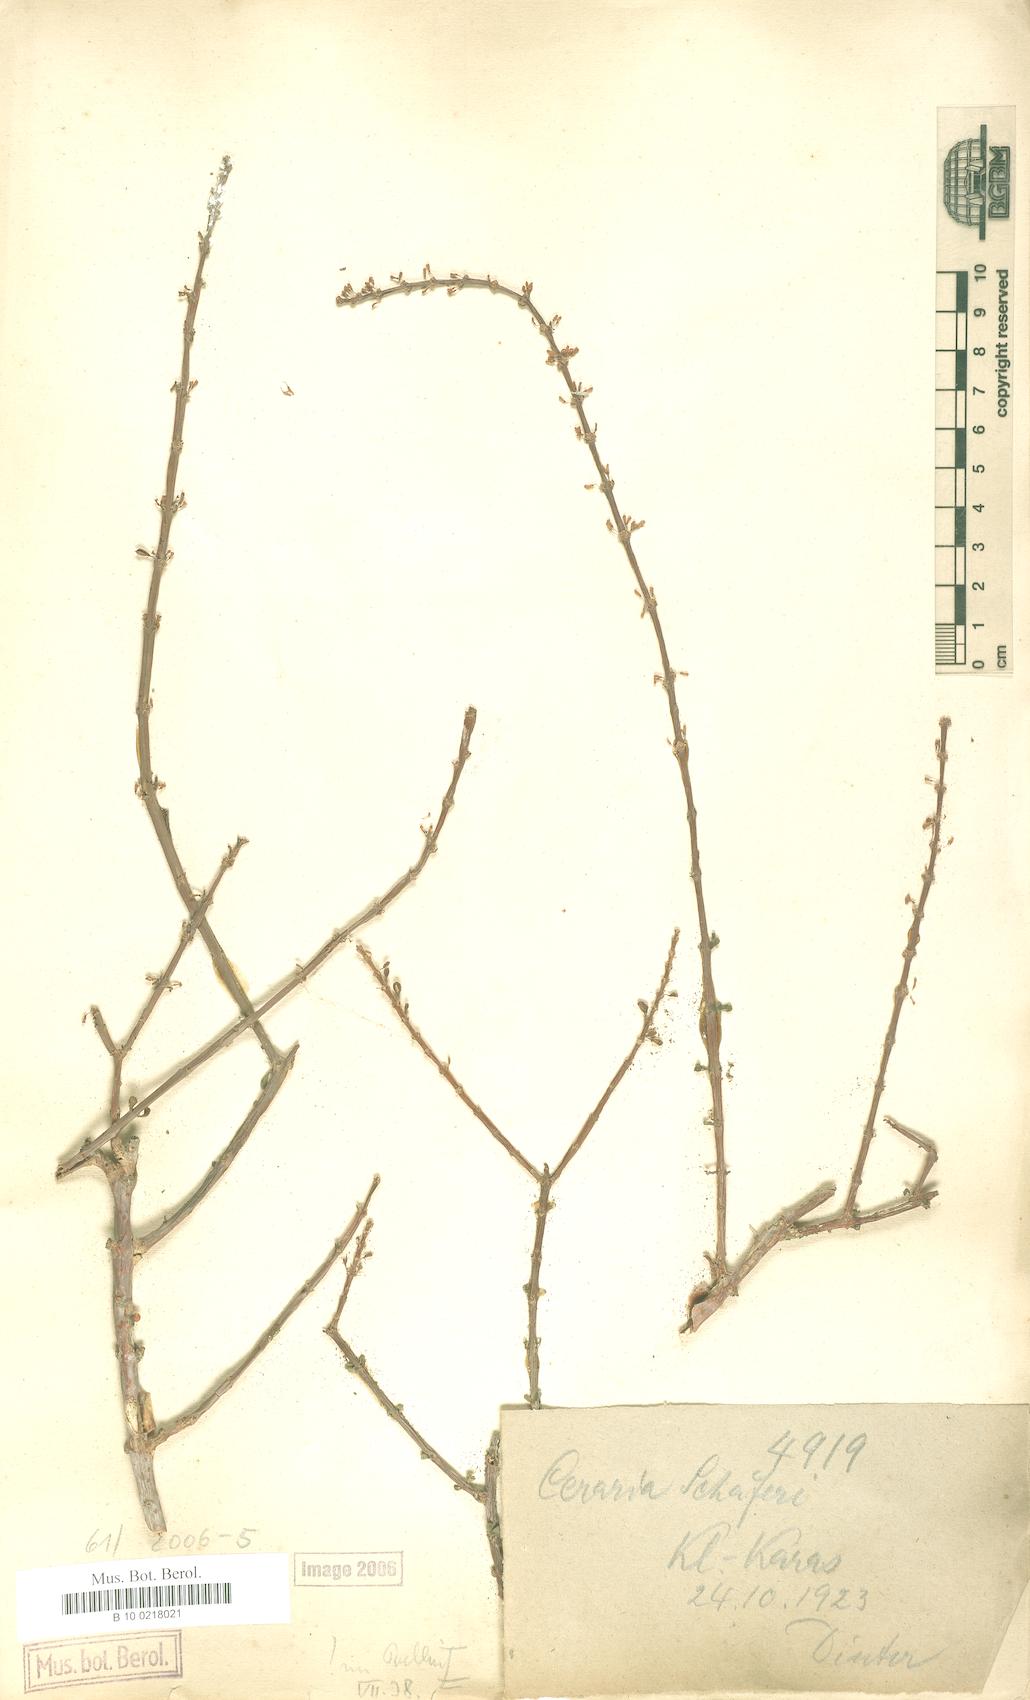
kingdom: Plantae
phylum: Tracheophyta
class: Magnoliopsida
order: Caryophyllales
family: Didiereaceae
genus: Portulacaria
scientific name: Portulacaria fruticulosa
